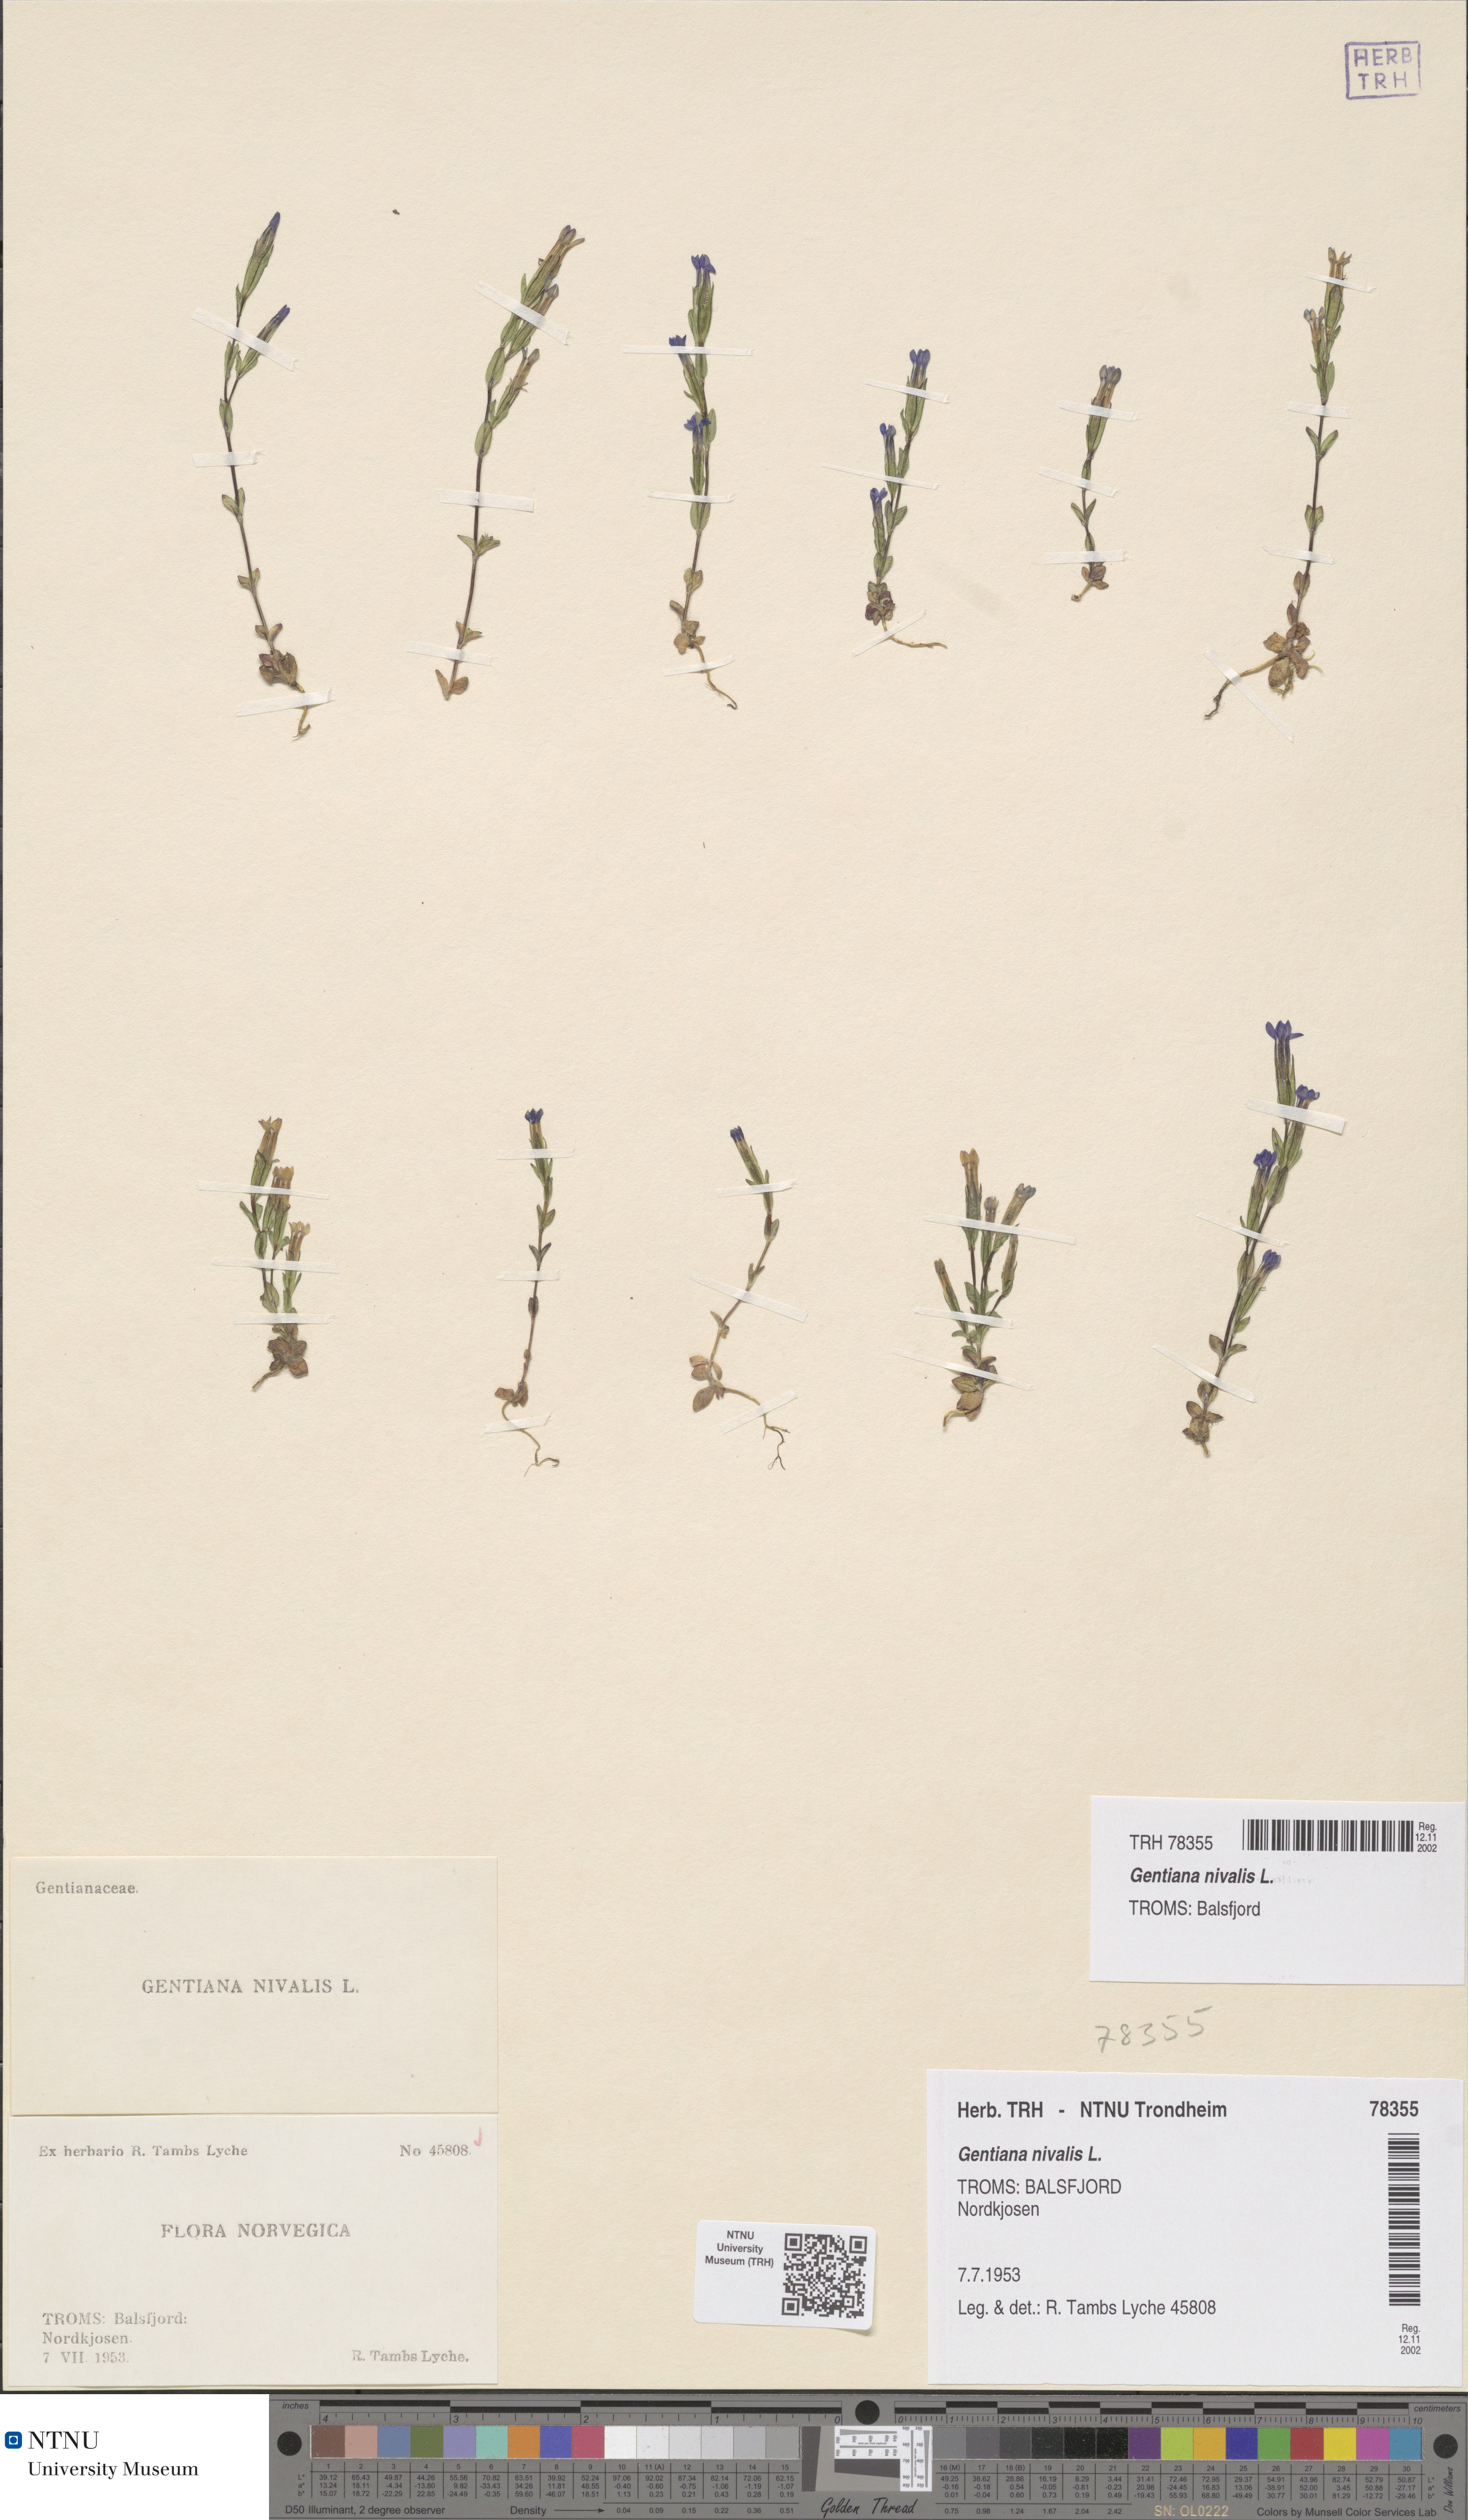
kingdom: Plantae
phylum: Tracheophyta
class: Magnoliopsida
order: Gentianales
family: Gentianaceae
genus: Gentiana
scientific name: Gentiana nivalis
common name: Alpine gentian
